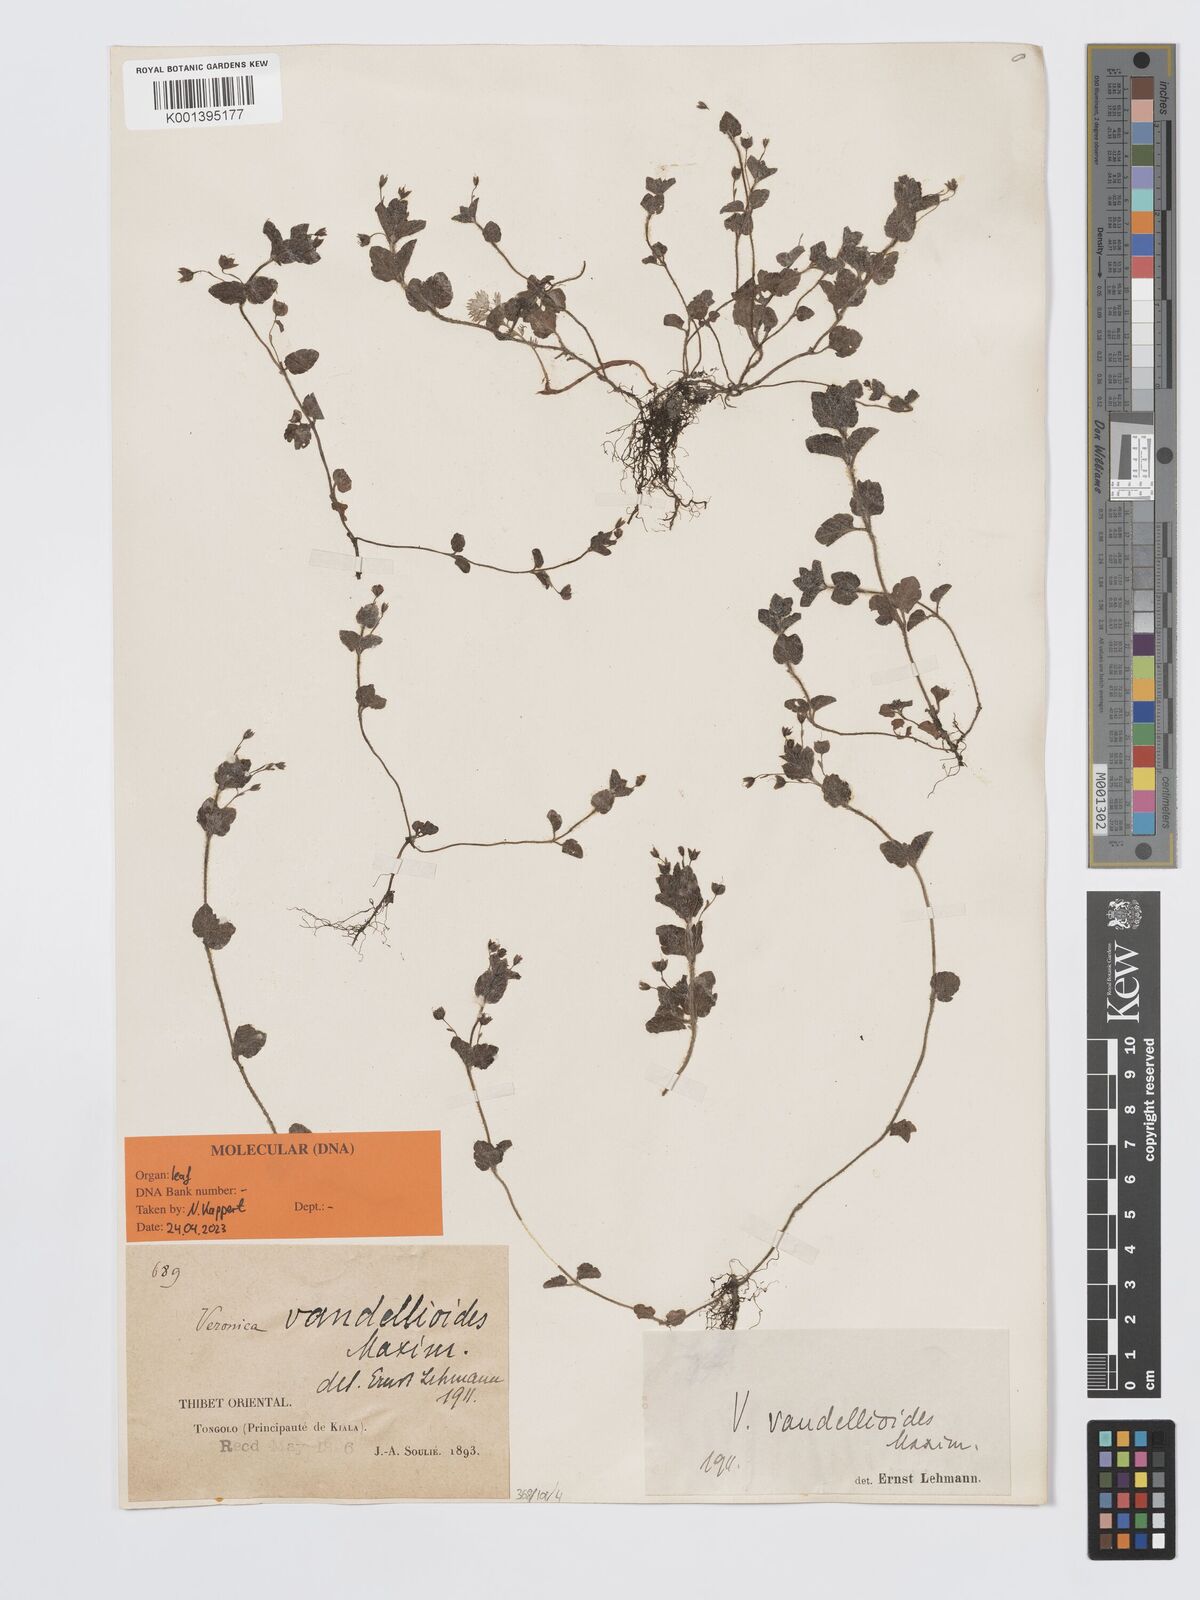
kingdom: Plantae
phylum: Tracheophyta
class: Magnoliopsida
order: Lamiales
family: Plantaginaceae
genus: Veronica
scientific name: Veronica vandellioides
